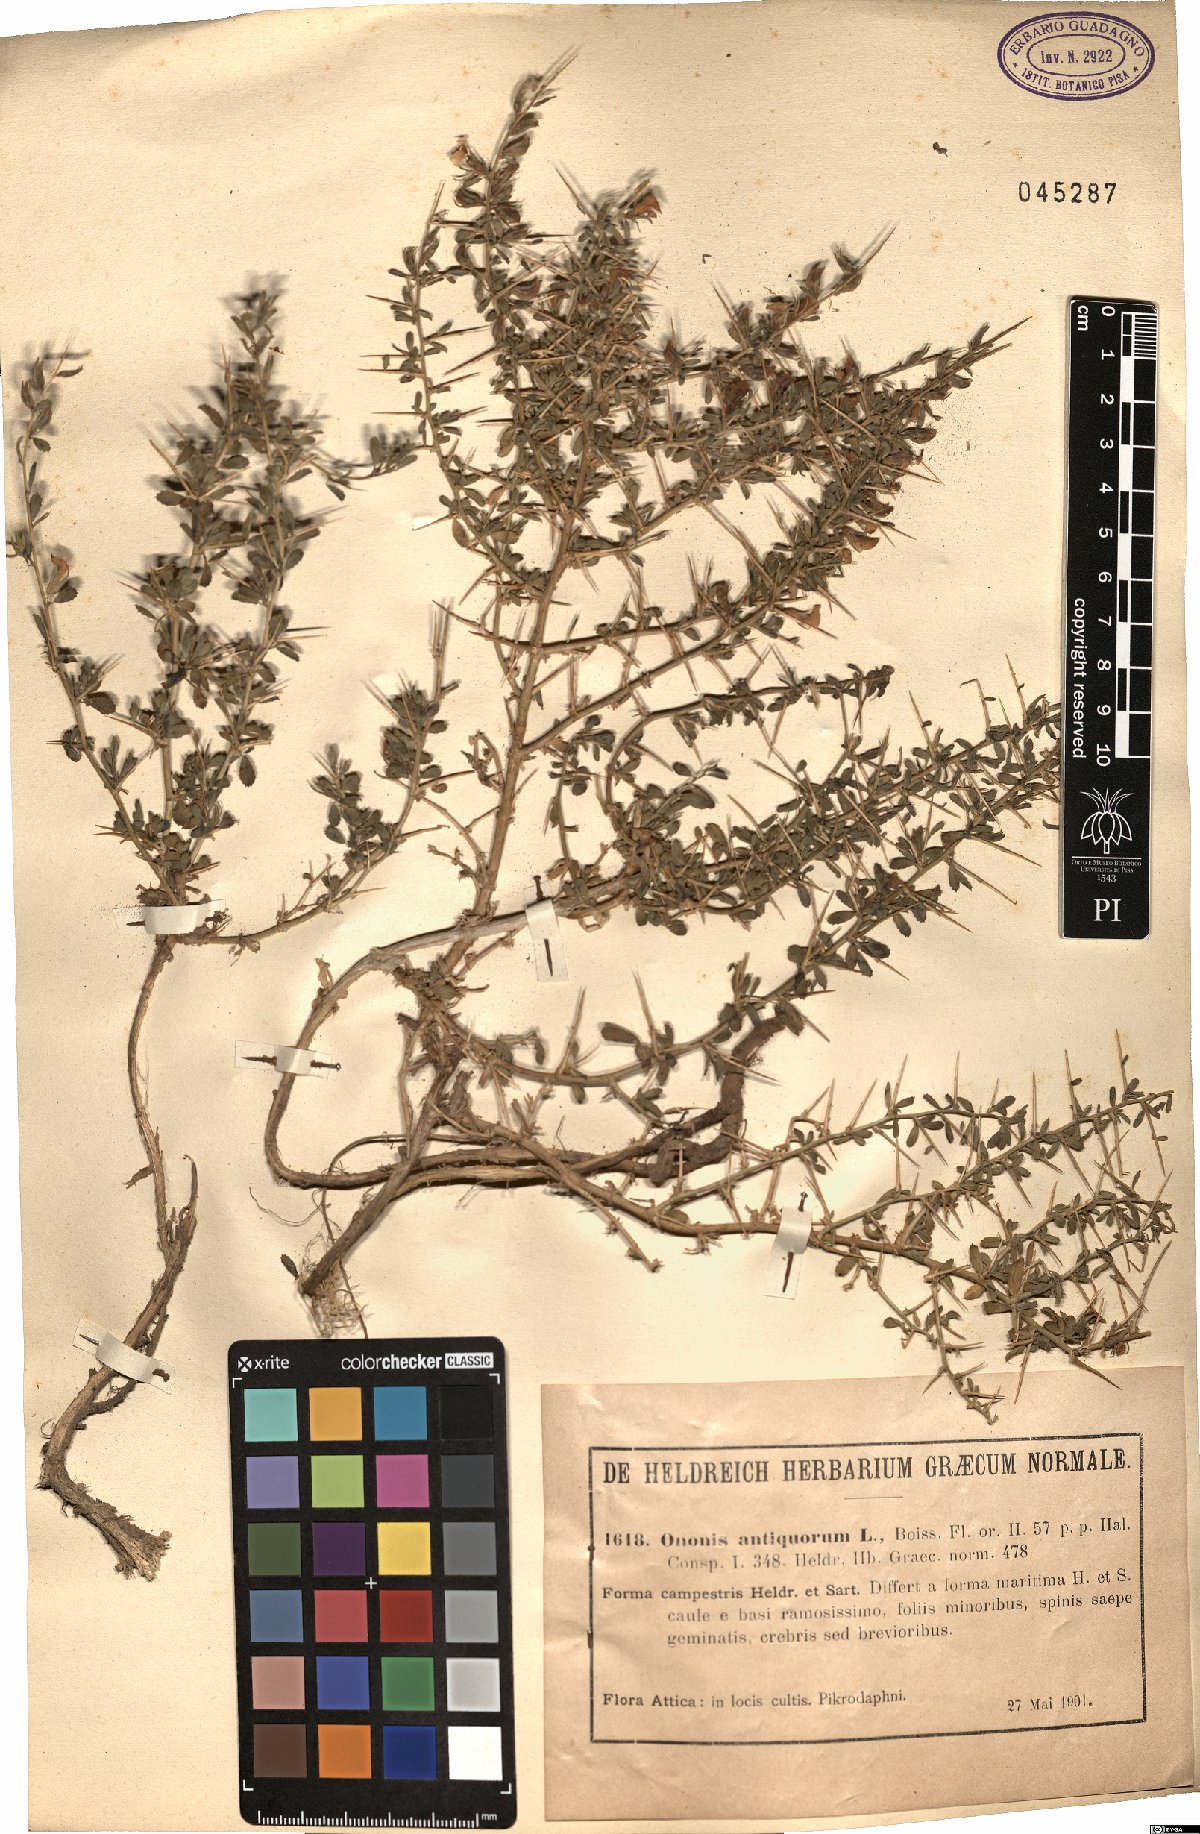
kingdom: Plantae
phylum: Tracheophyta
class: Magnoliopsida
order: Fabales
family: Fabaceae
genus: Ononis
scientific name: Ononis antiquorum
